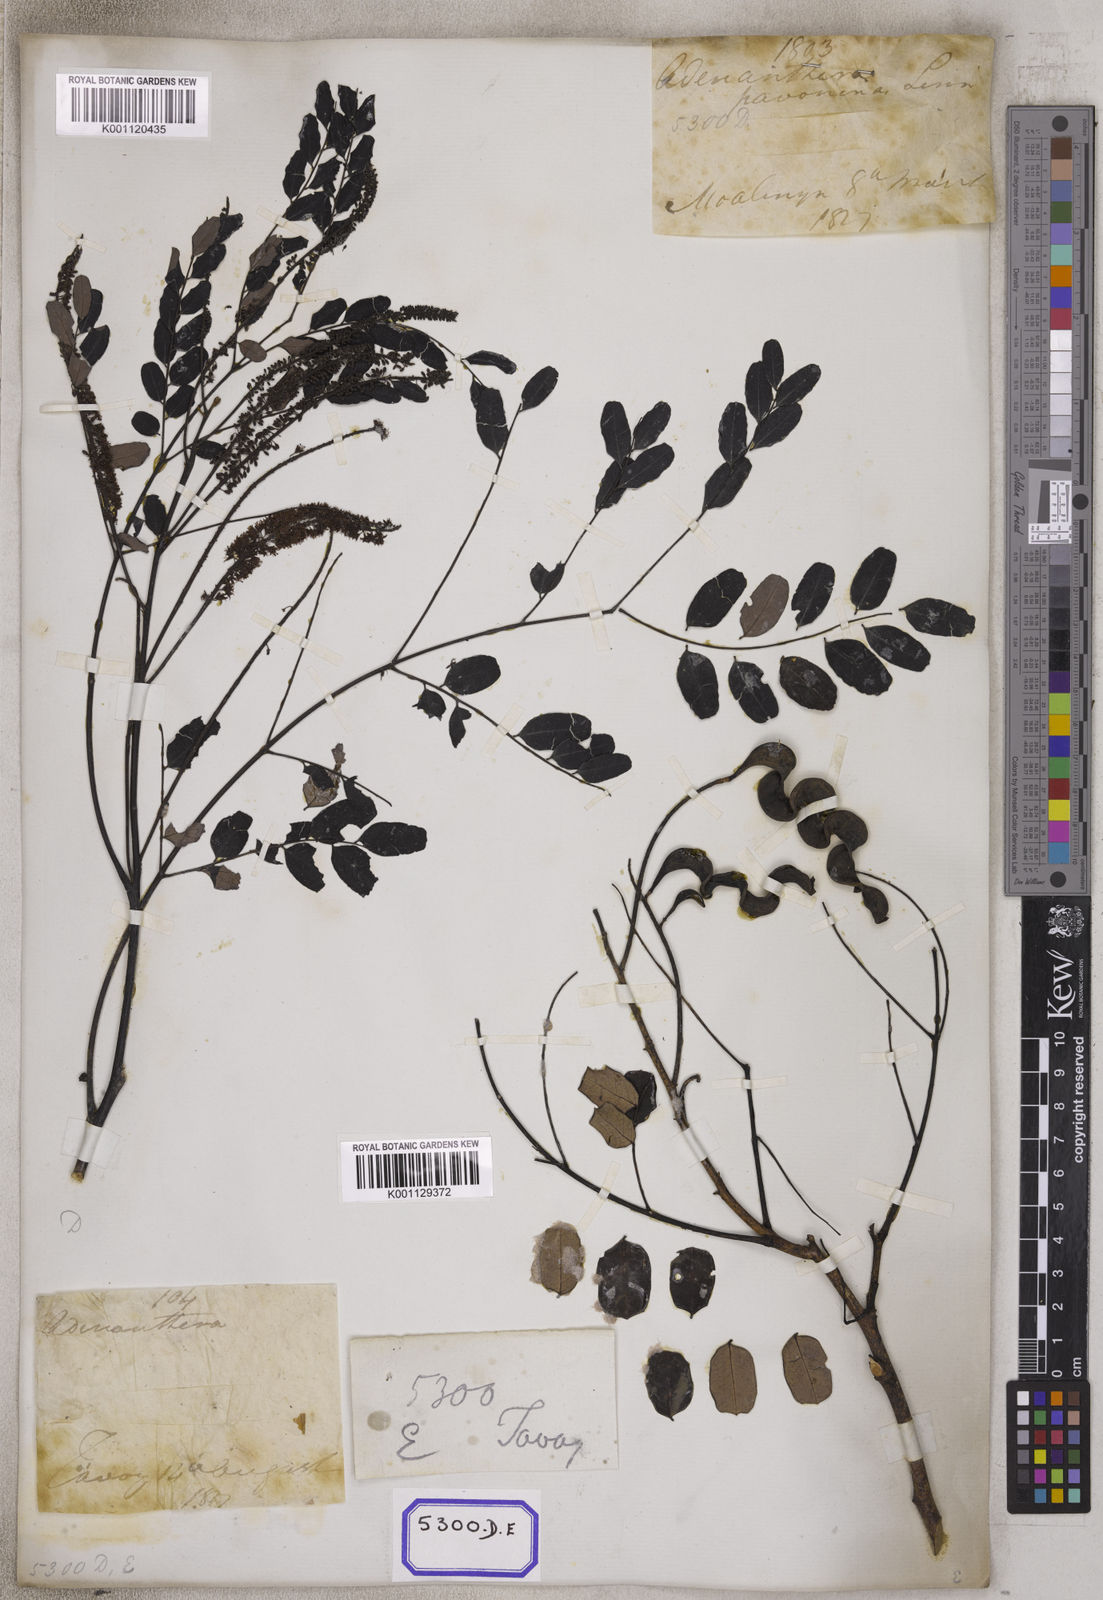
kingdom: Plantae
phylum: Tracheophyta
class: Magnoliopsida
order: Fabales
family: Fabaceae
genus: Adenanthera
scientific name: Adenanthera pavonina
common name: Red beadtree
